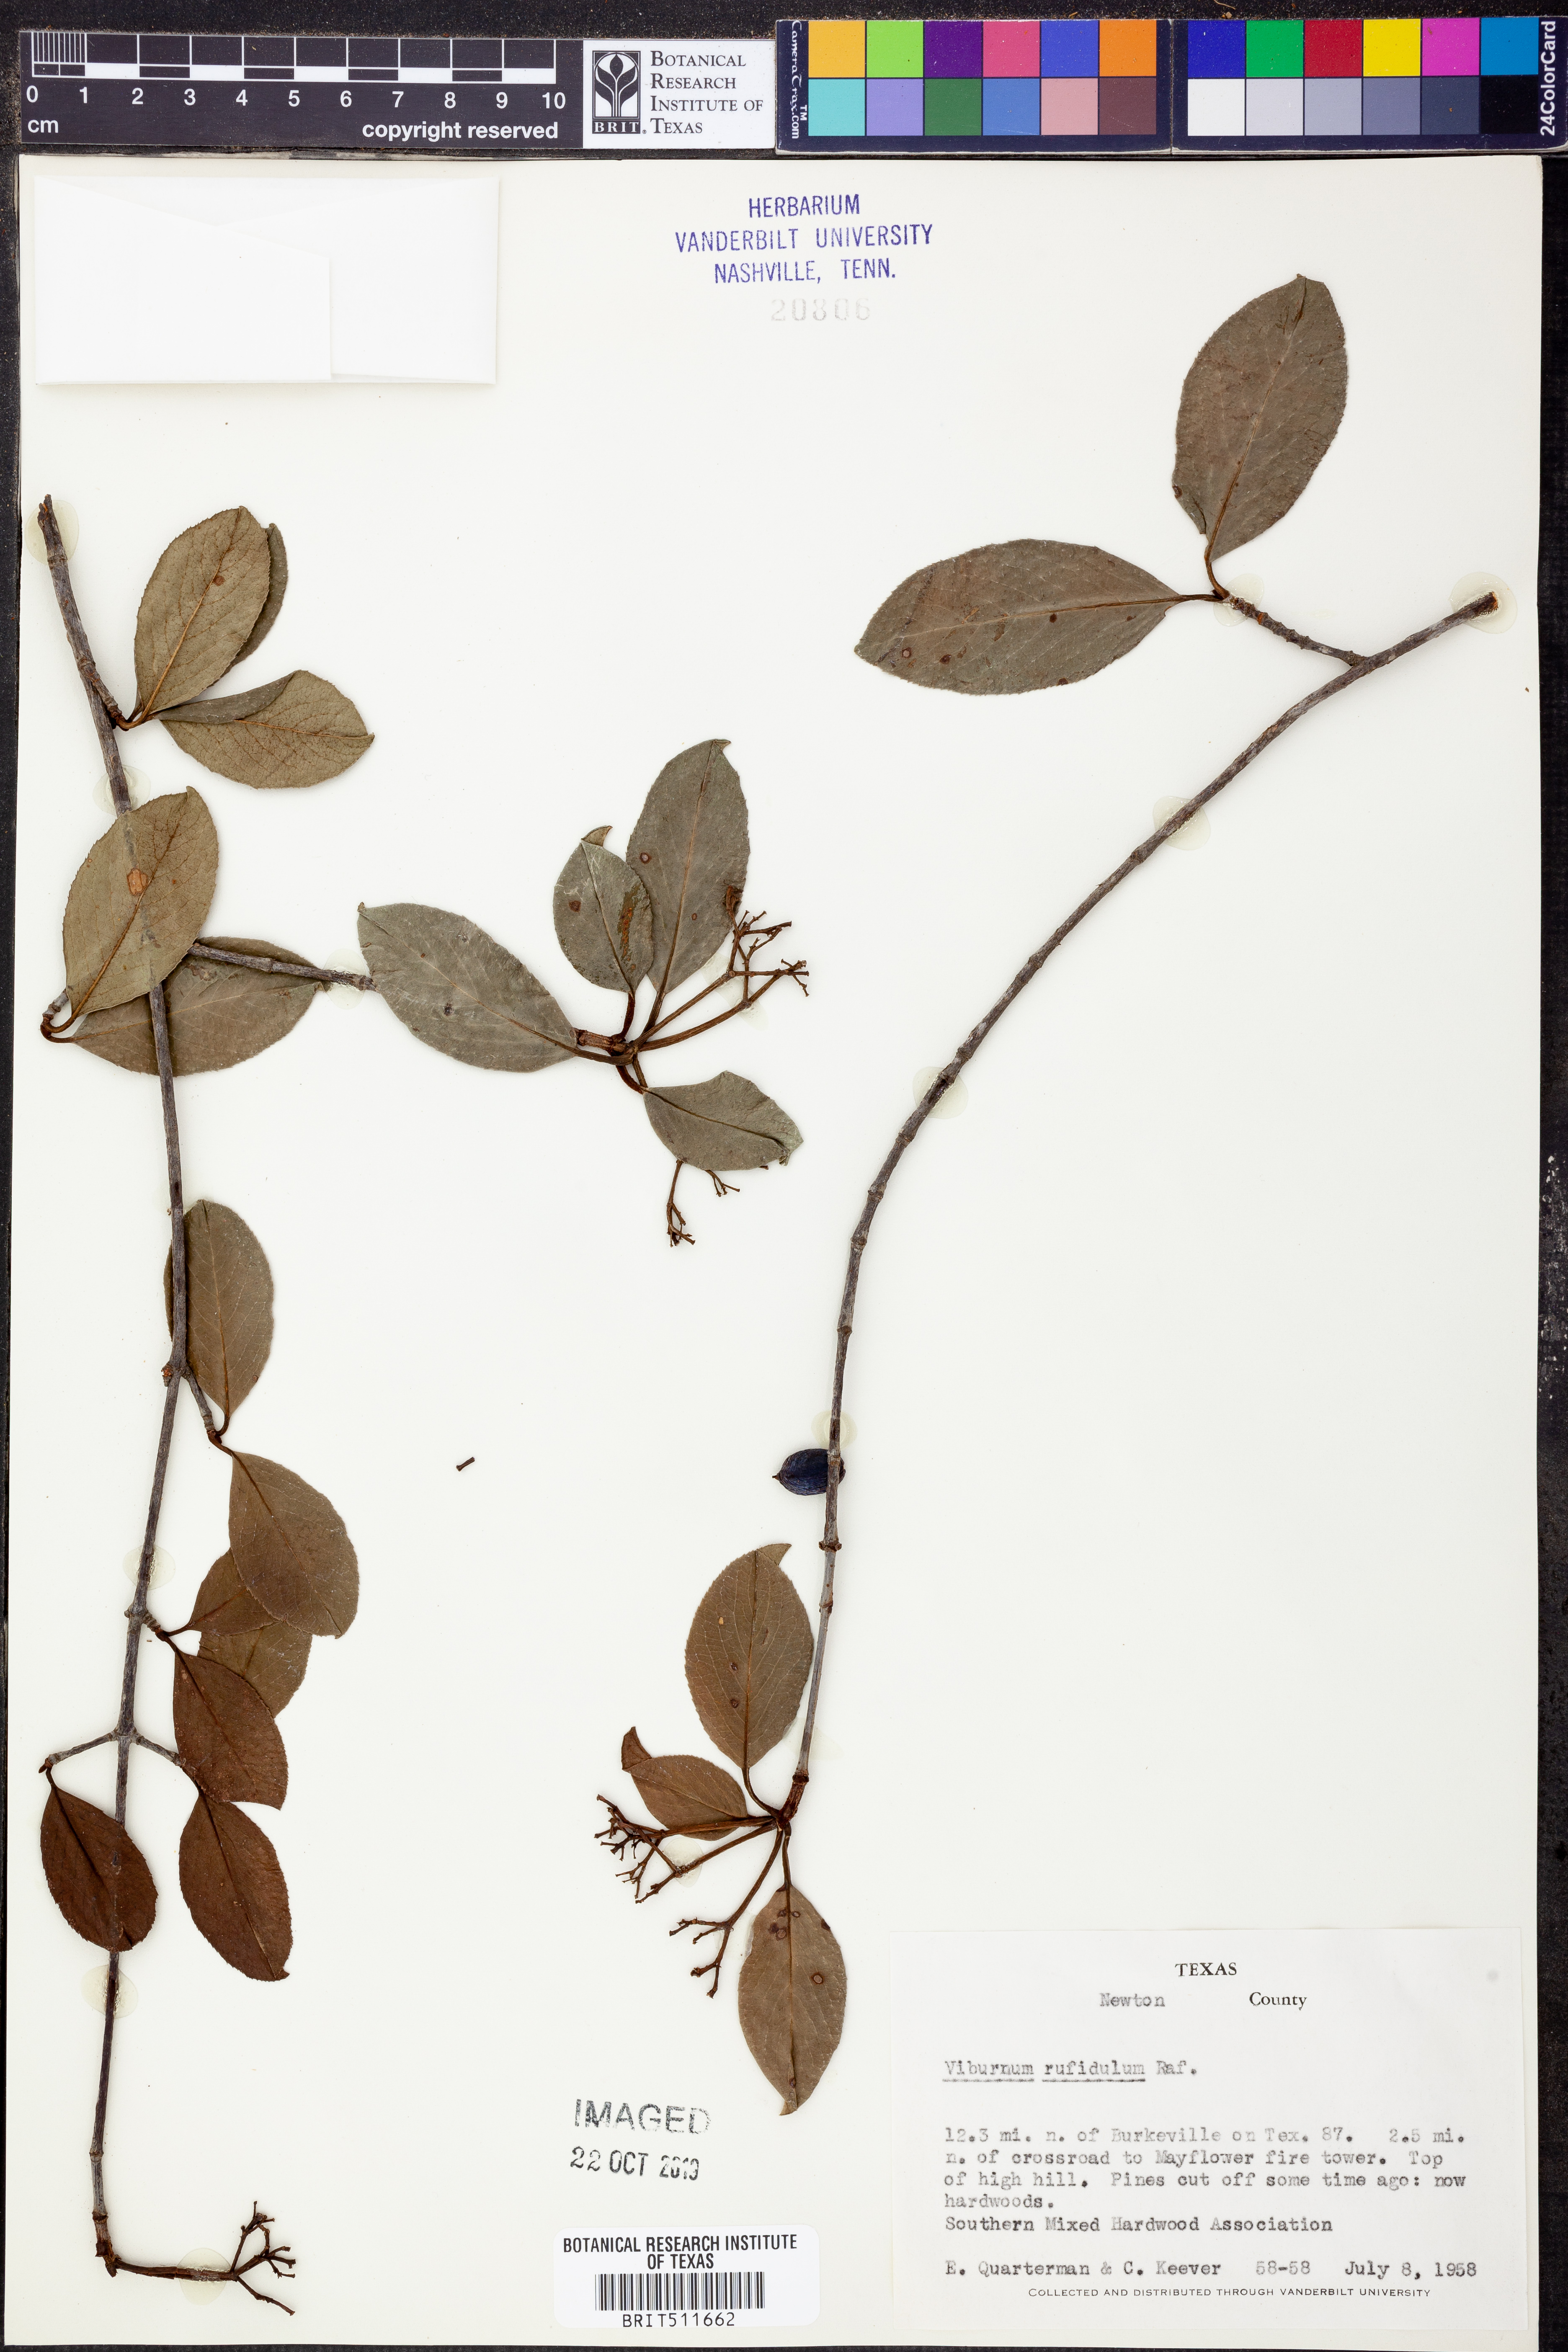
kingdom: Plantae
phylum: Tracheophyta
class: Magnoliopsida
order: Dipsacales
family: Viburnaceae
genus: Viburnum
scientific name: Viburnum rufidulum
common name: Blue haw
